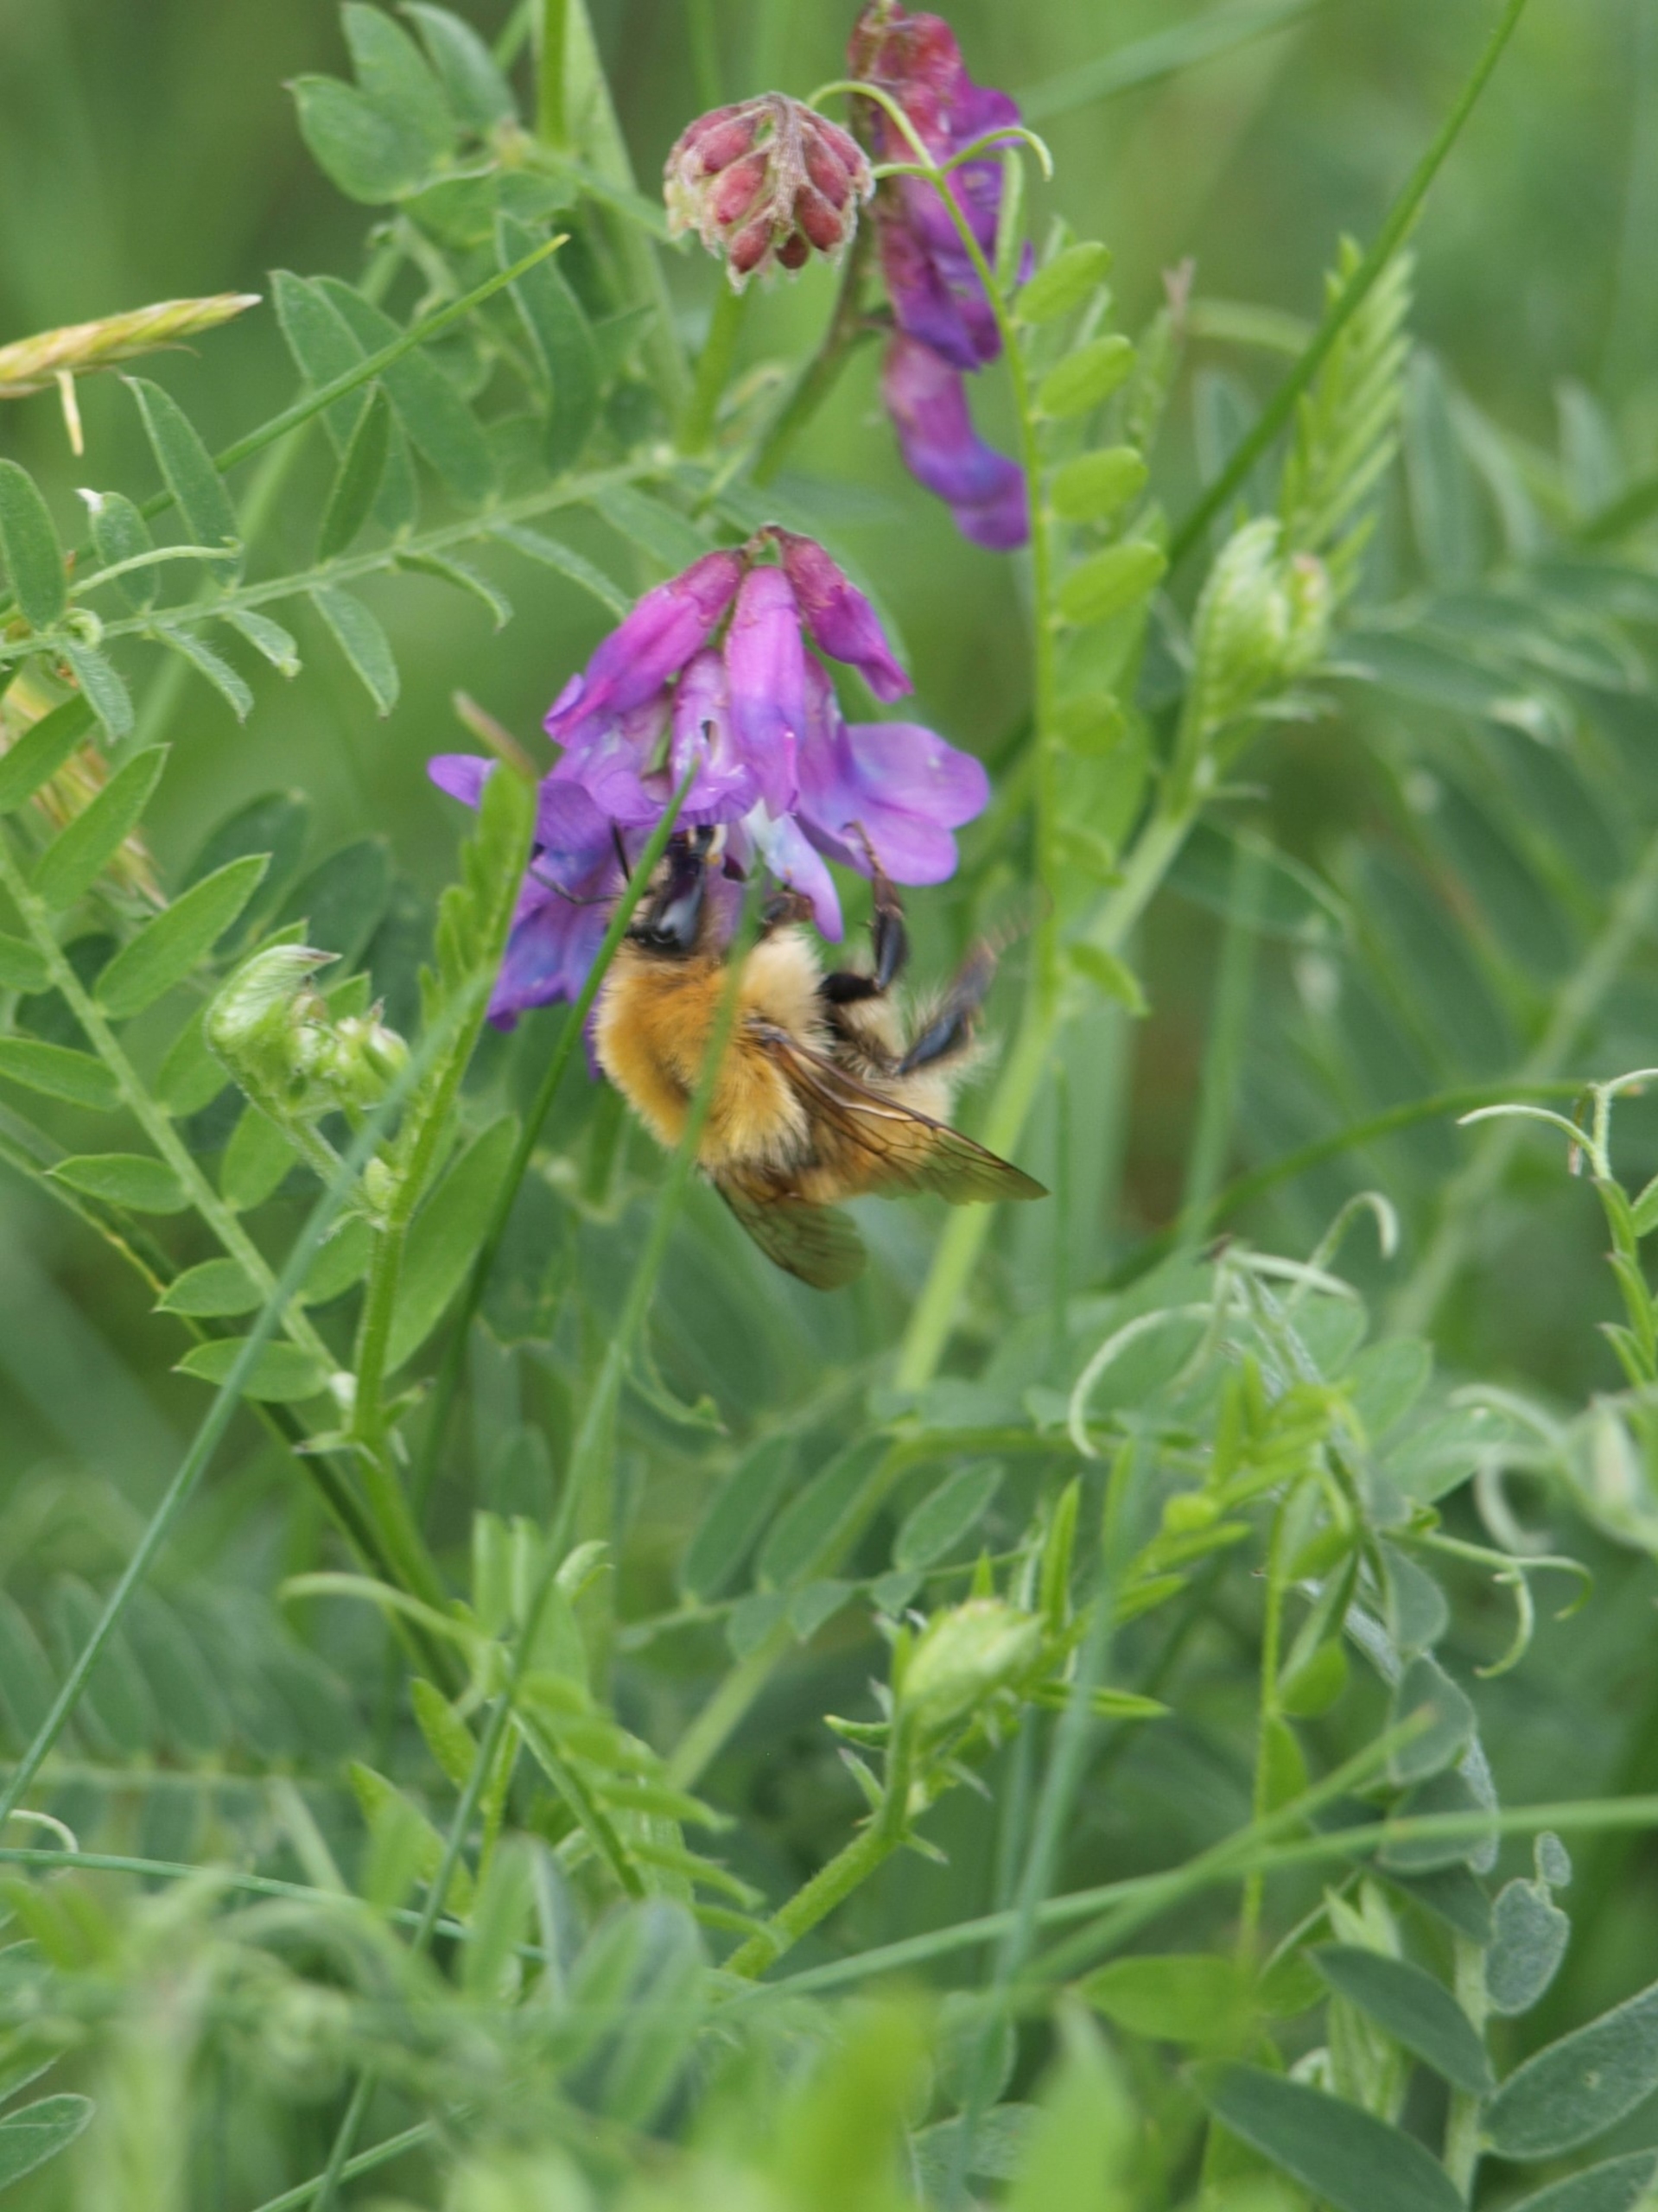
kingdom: Animalia
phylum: Arthropoda
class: Insecta
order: Hymenoptera
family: Apidae
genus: Bombus
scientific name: Bombus muscorum
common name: Moshumle
